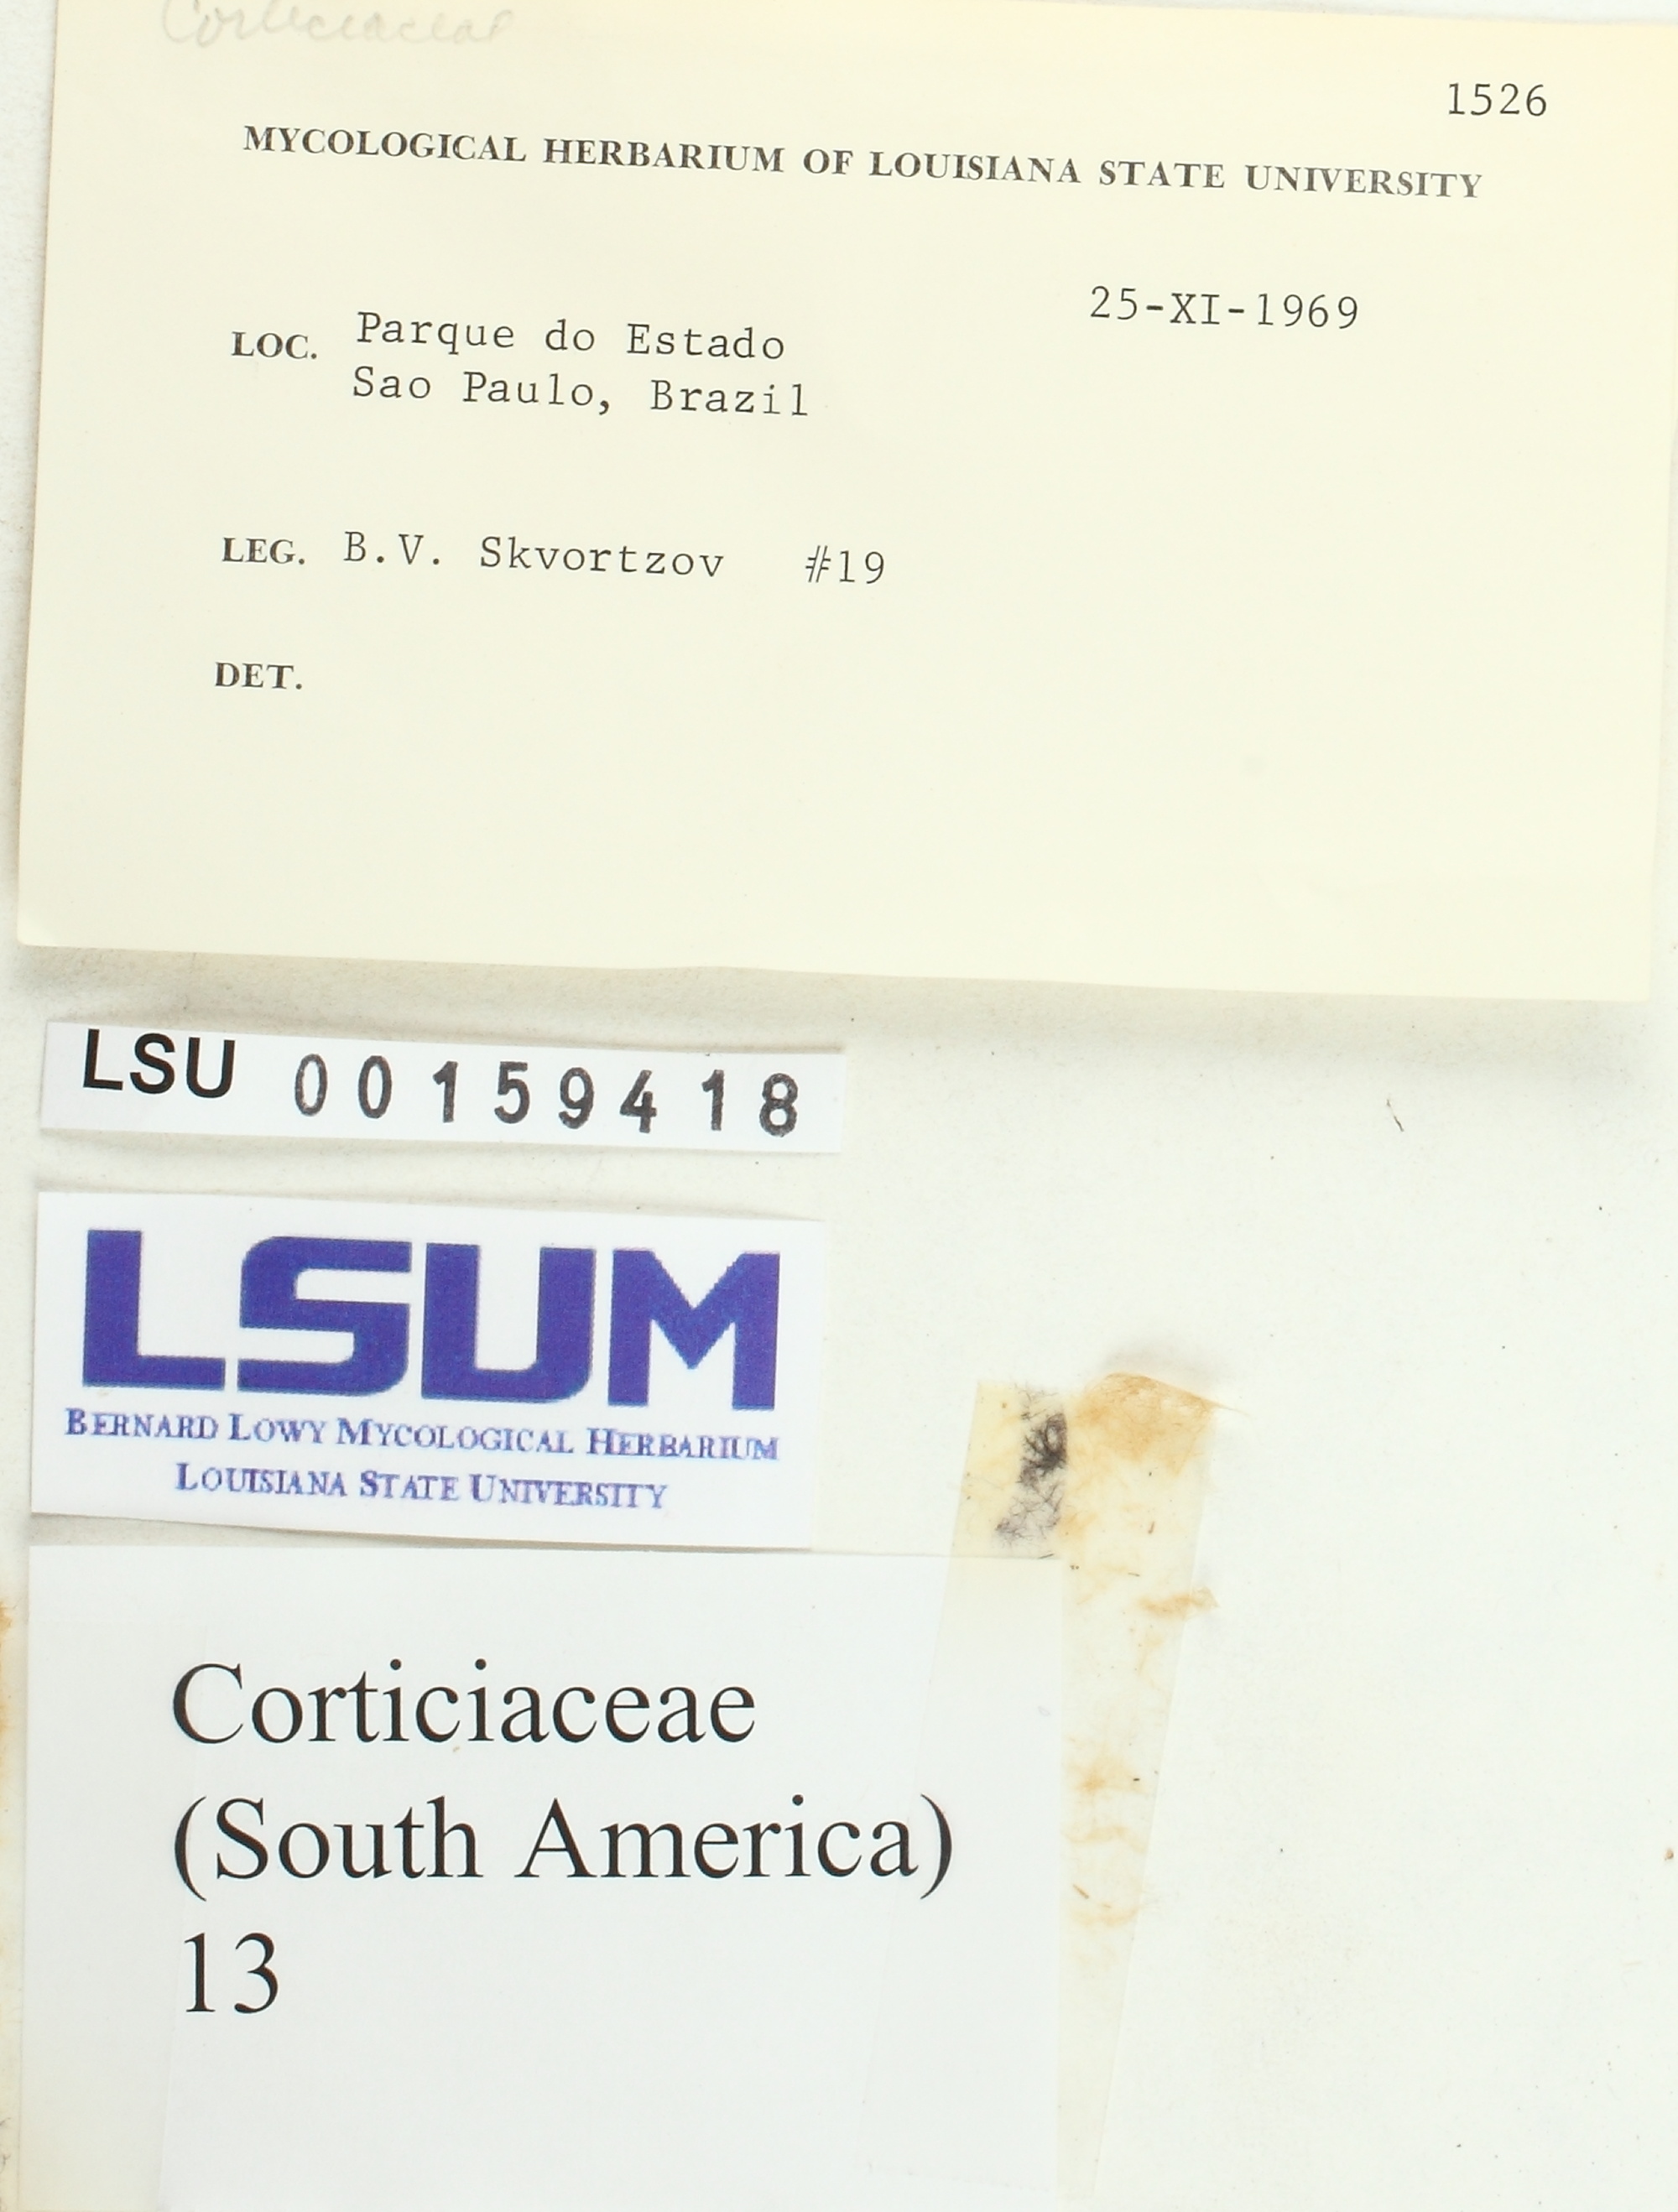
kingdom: Fungi
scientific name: Fungi
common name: Fungi
